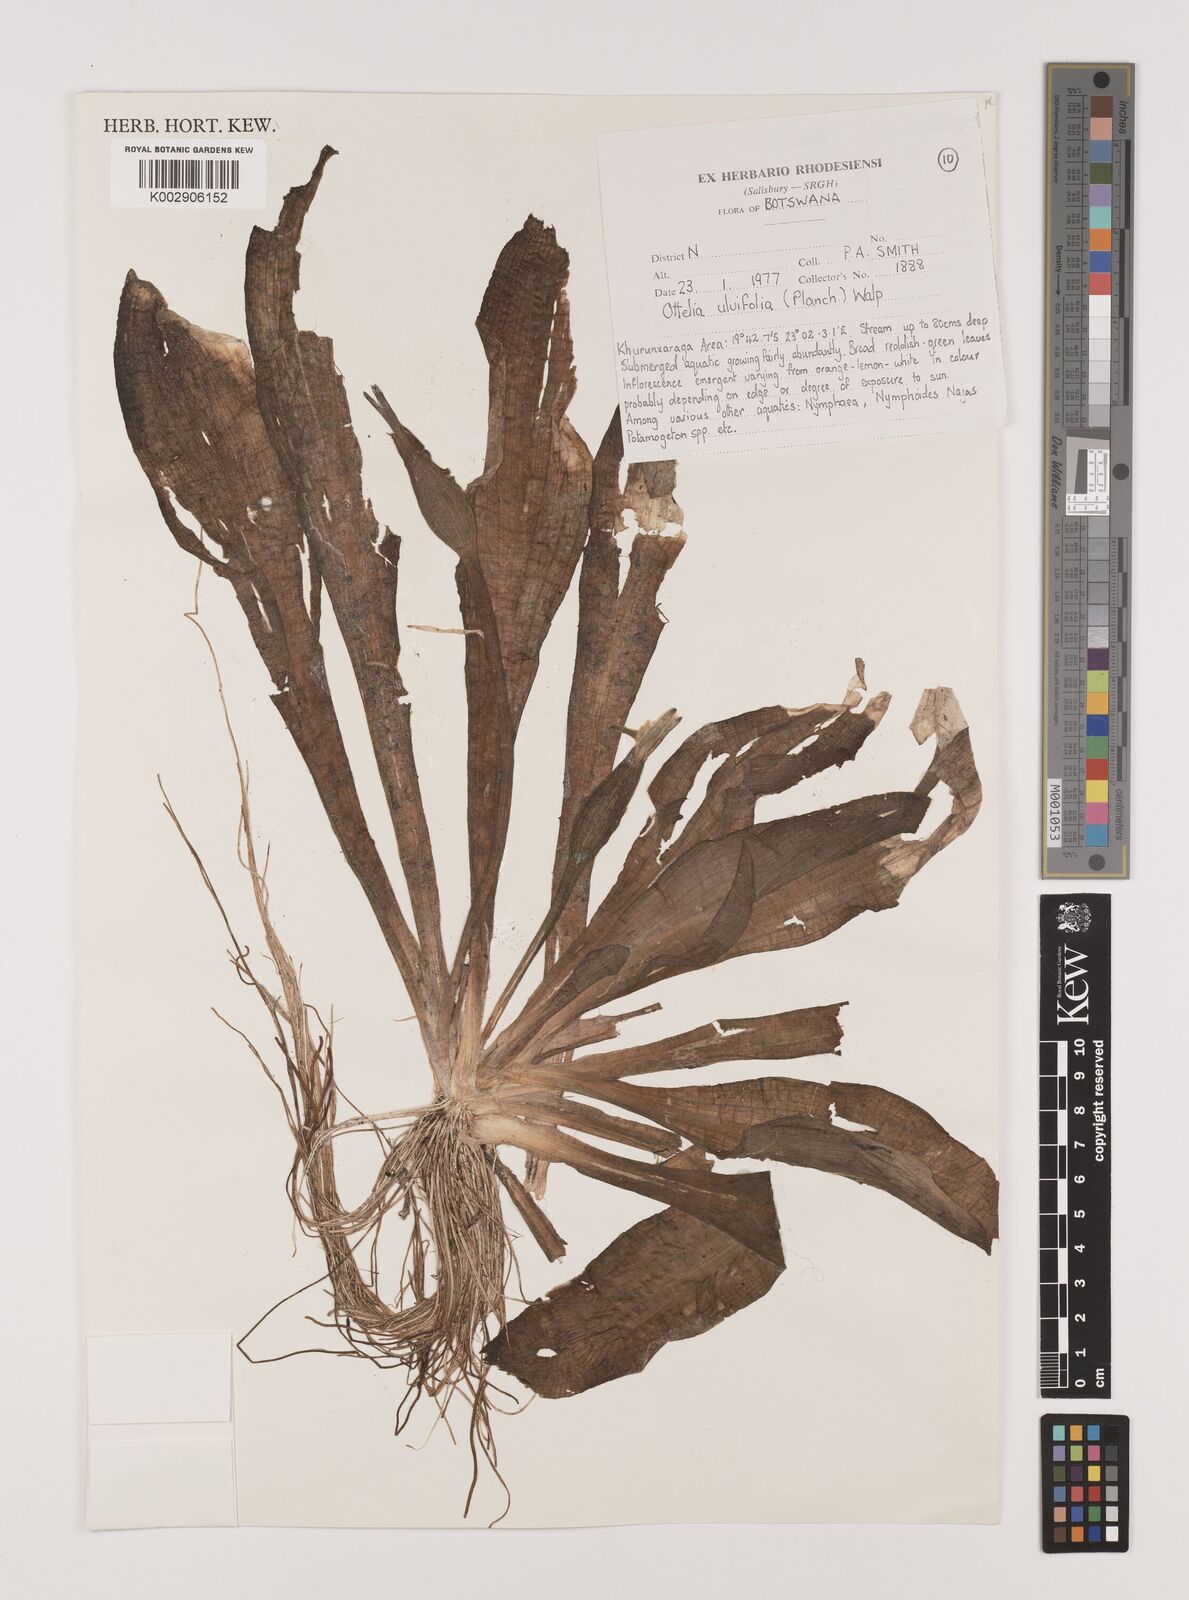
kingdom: Plantae
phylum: Tracheophyta
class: Liliopsida
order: Alismatales
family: Hydrocharitaceae
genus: Ottelia
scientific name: Ottelia ulvifolia
